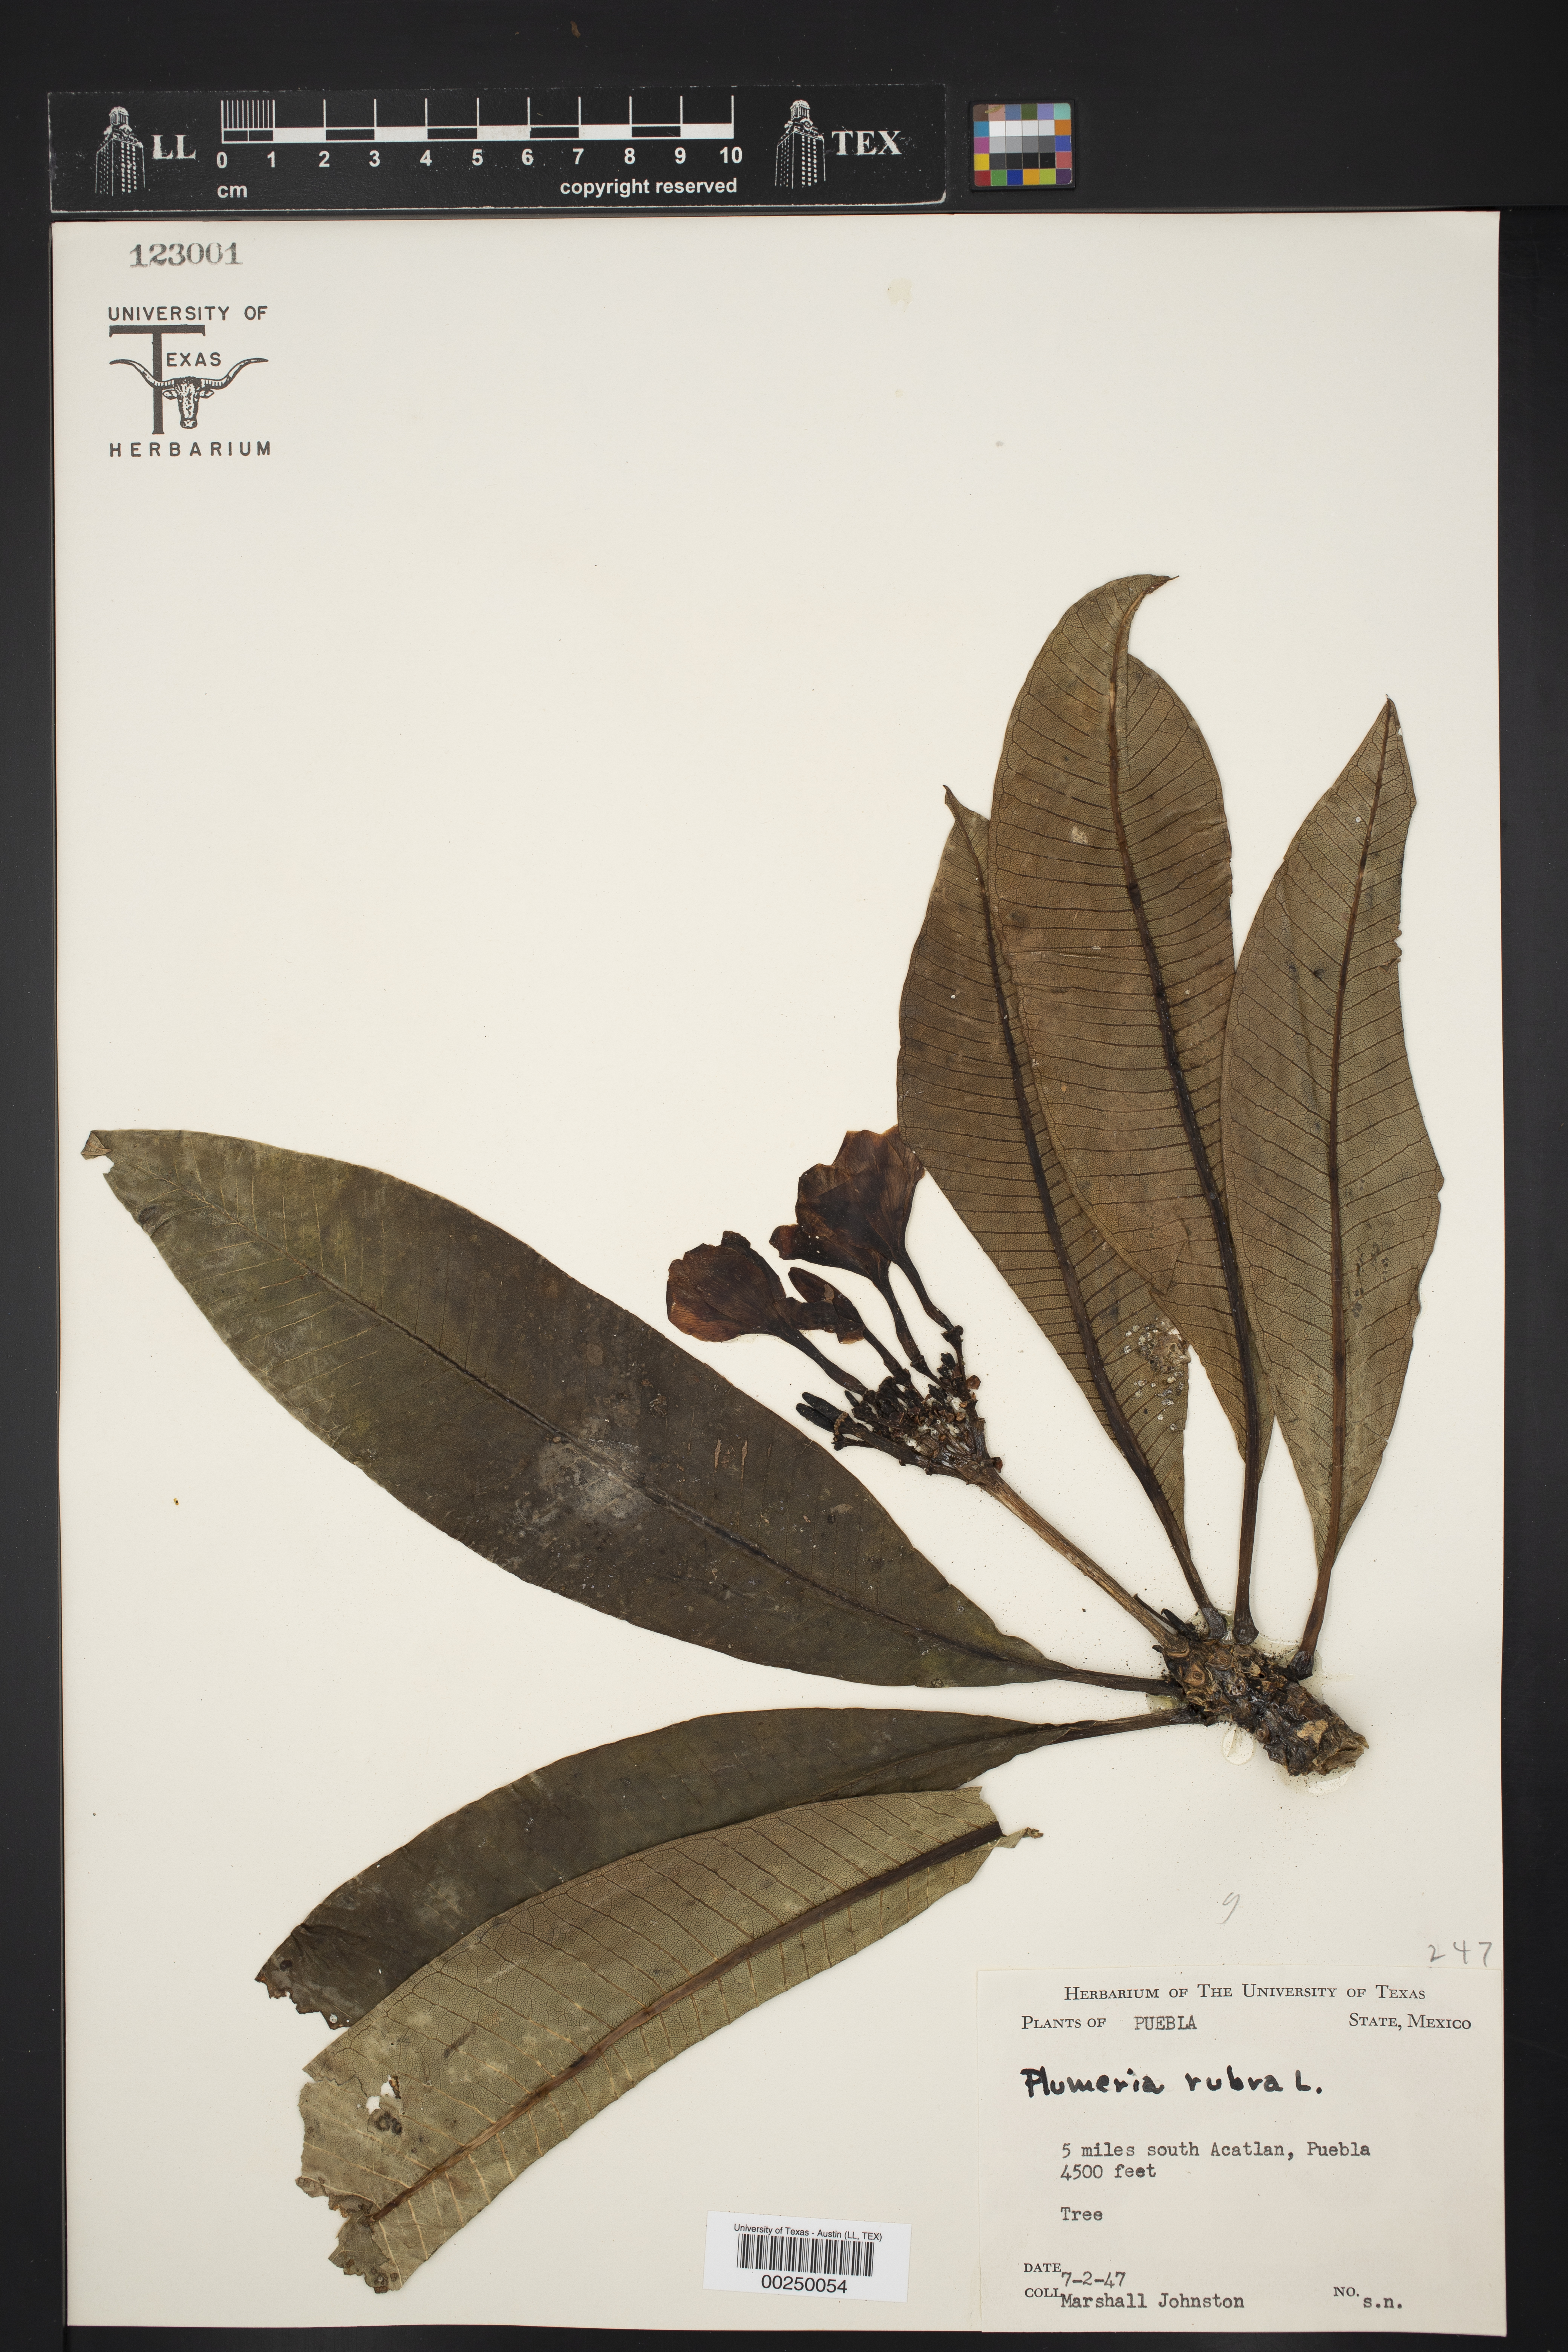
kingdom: Plantae
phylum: Tracheophyta
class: Magnoliopsida
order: Gentianales
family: Apocynaceae
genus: Plumeria
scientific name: Plumeria rubra
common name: Pagoda-tree
